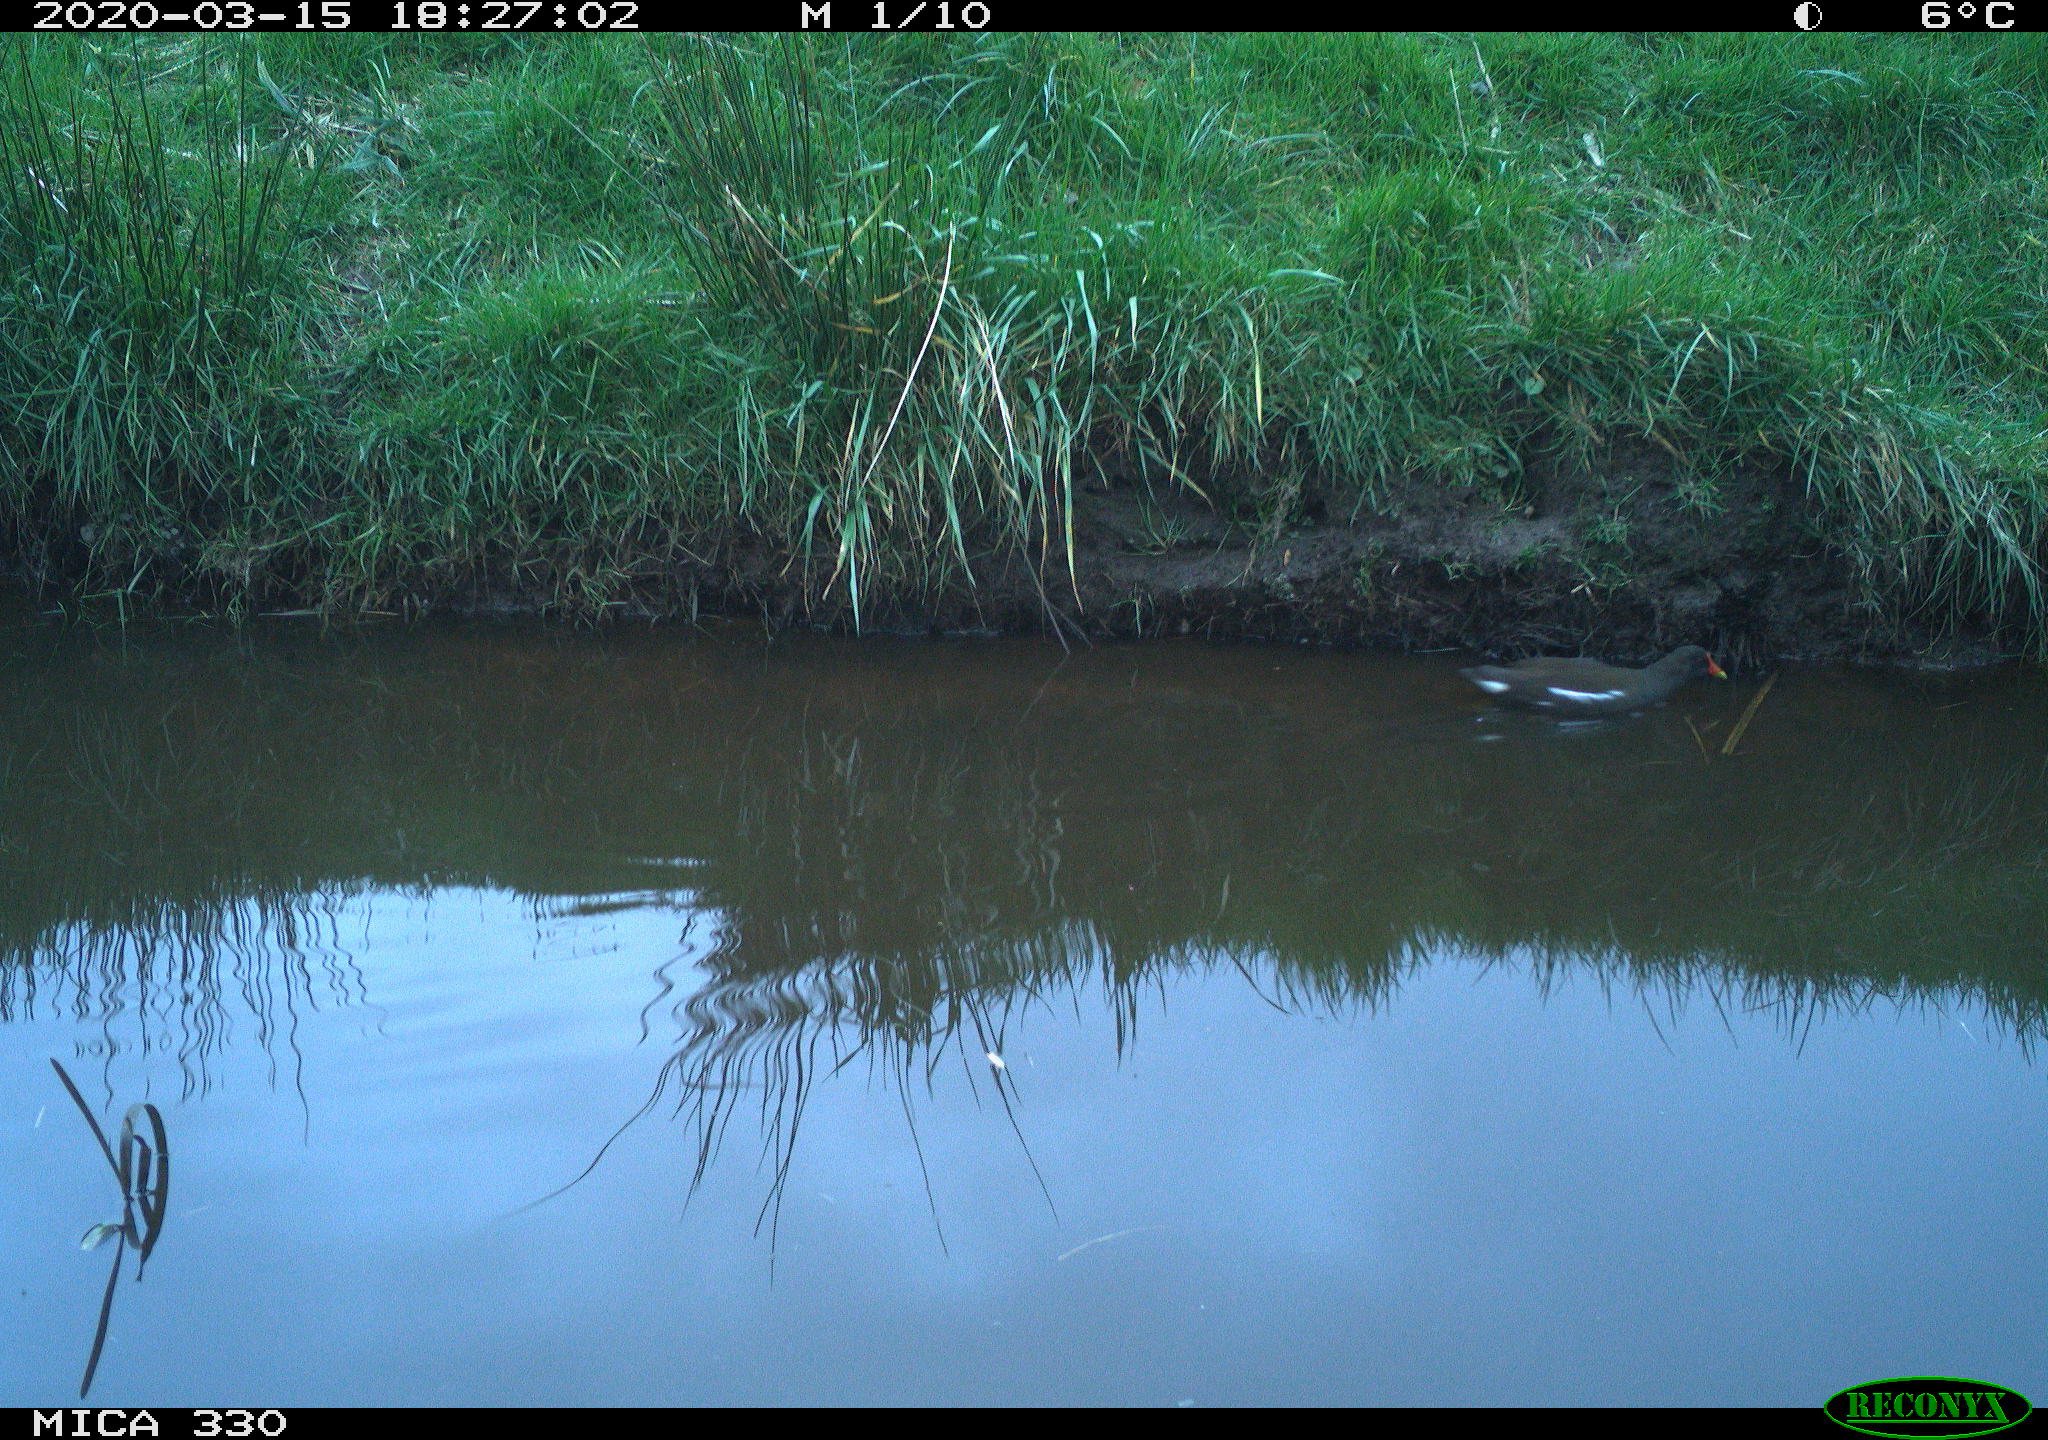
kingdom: Animalia
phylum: Chordata
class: Aves
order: Gruiformes
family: Rallidae
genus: Gallinula
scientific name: Gallinula chloropus
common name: Common moorhen
